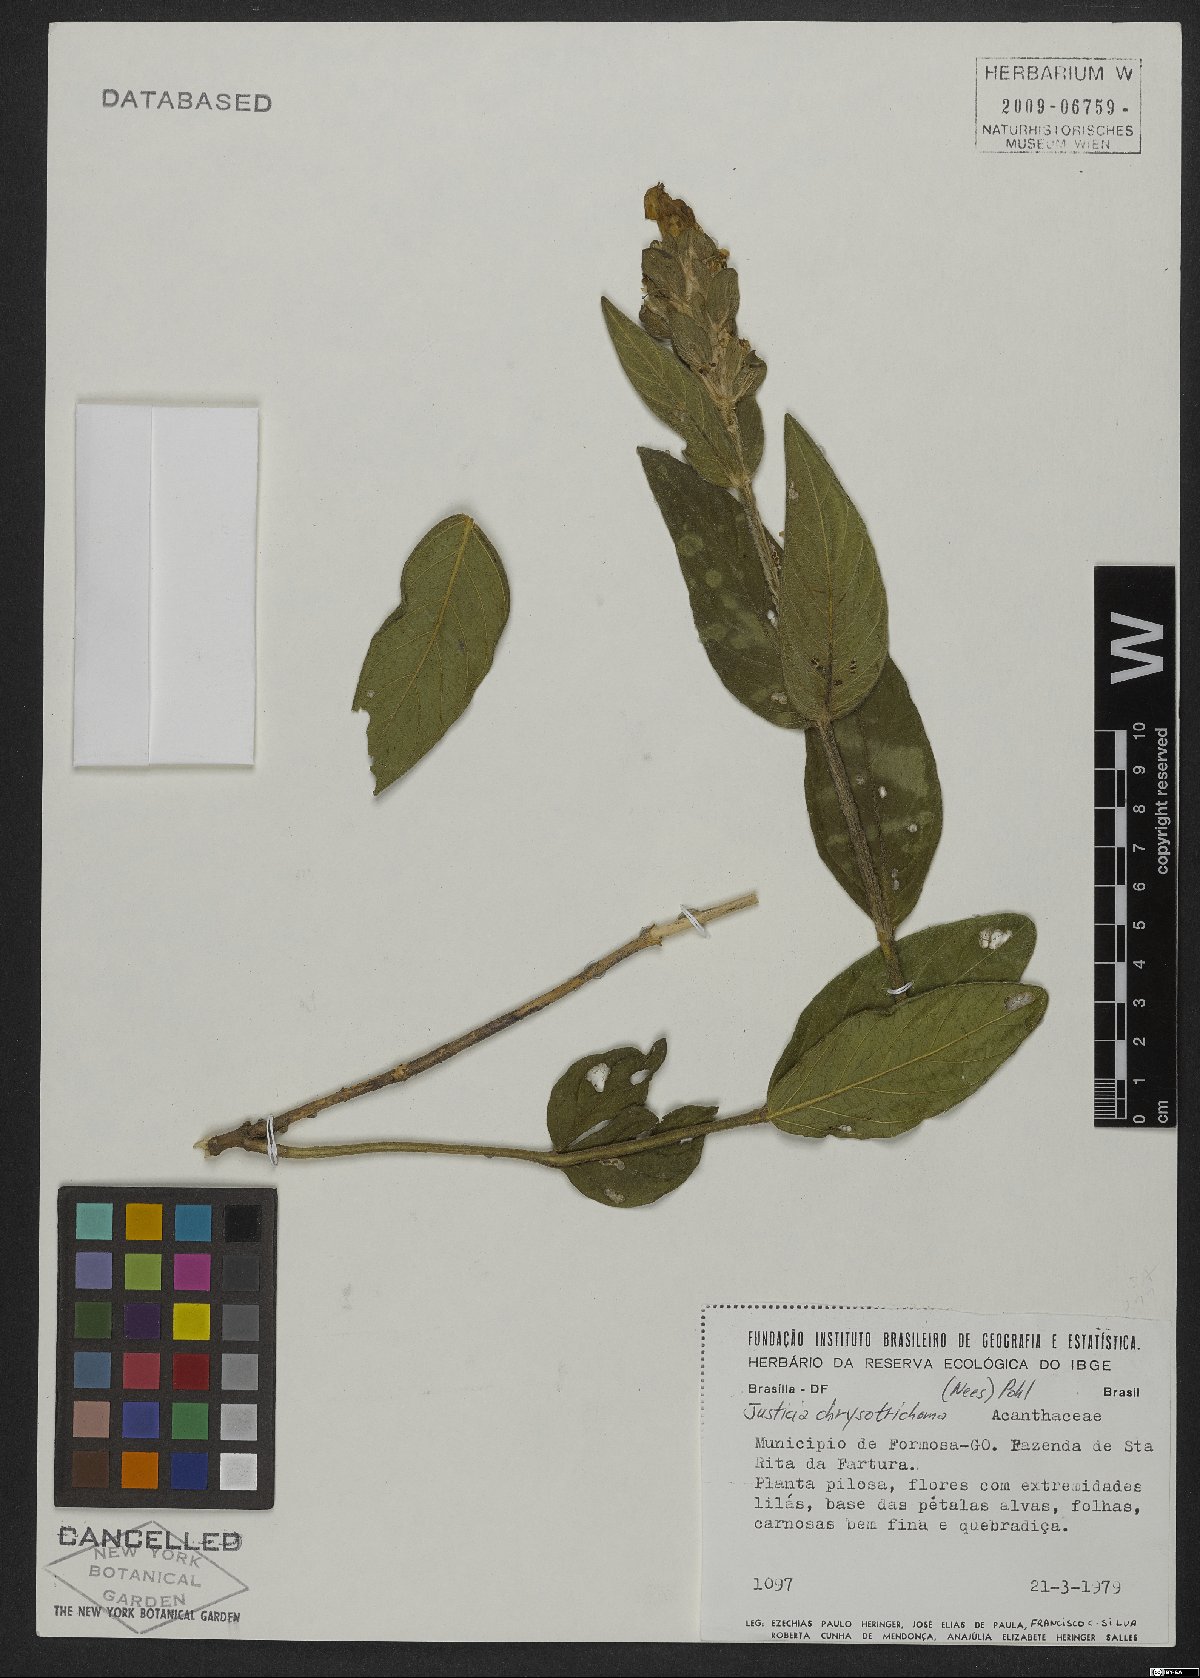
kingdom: Plantae
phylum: Tracheophyta
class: Magnoliopsida
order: Lamiales
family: Acanthaceae
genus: Justicia
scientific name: Justicia chrysotrichoma
